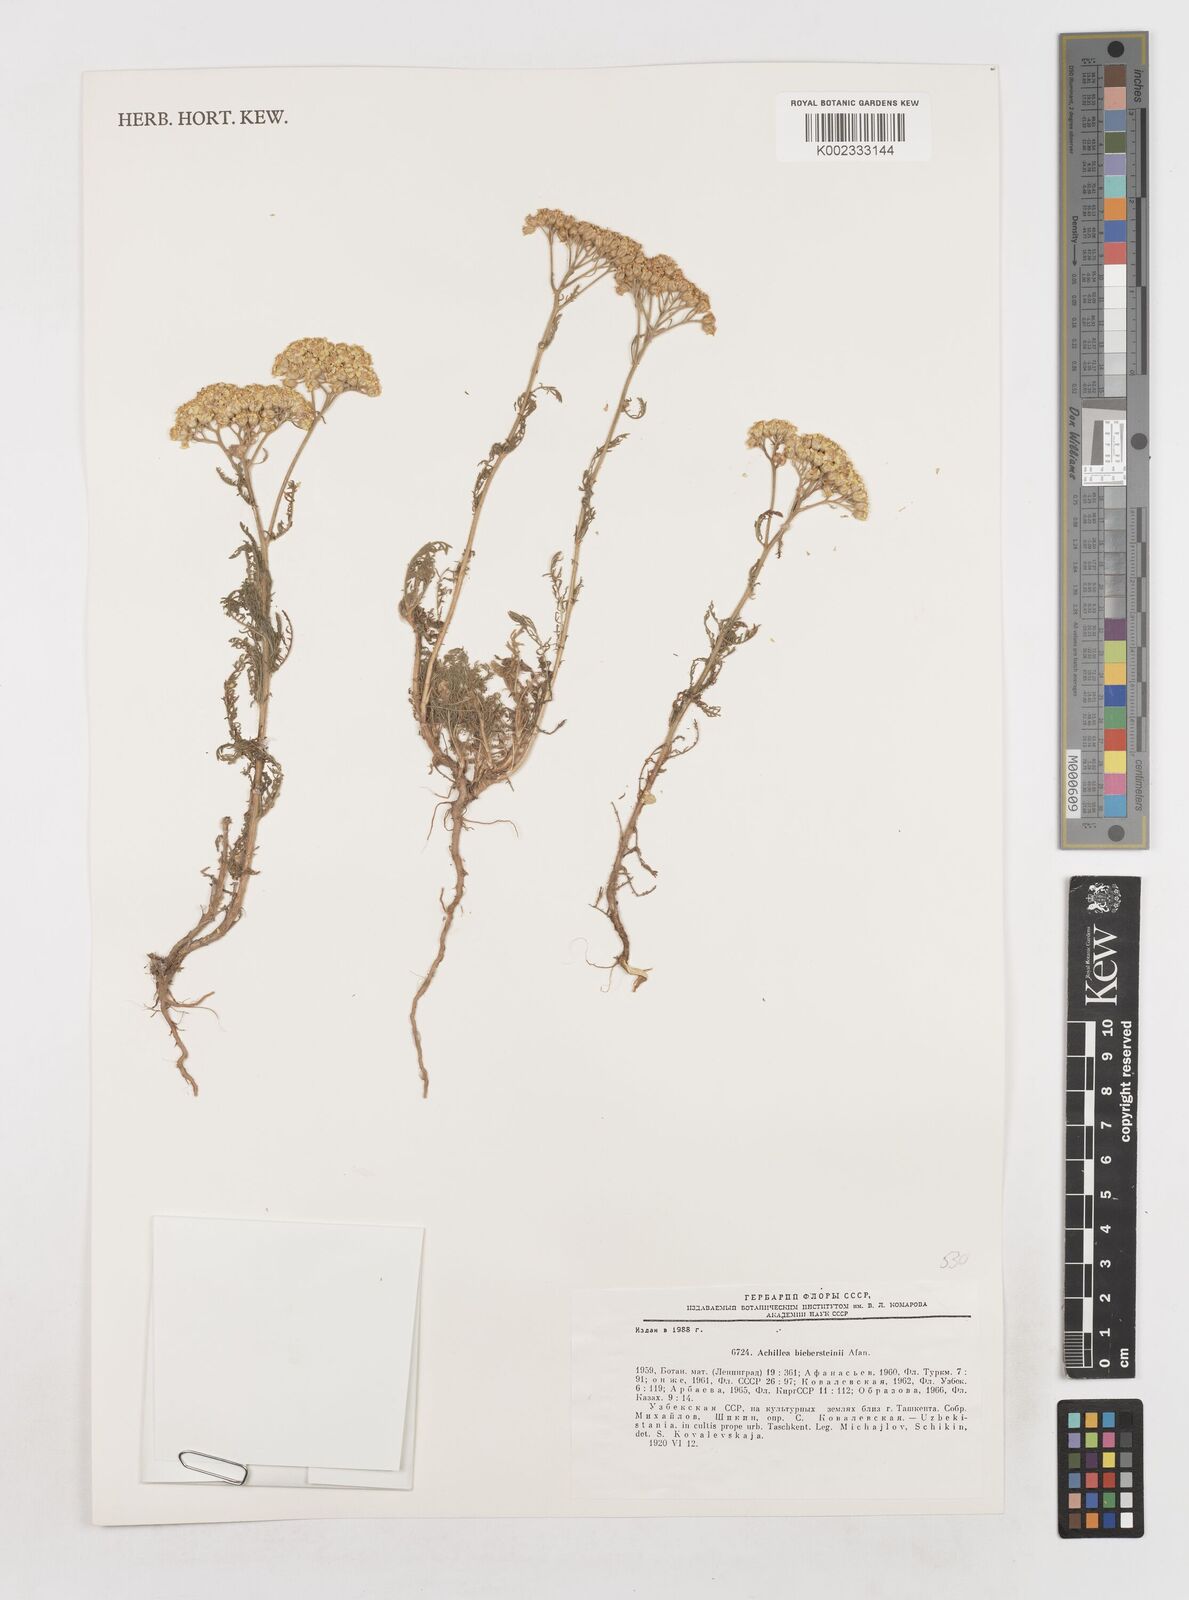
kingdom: Plantae
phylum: Tracheophyta
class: Magnoliopsida
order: Asterales
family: Asteraceae
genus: Achillea
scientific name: Achillea arabica
